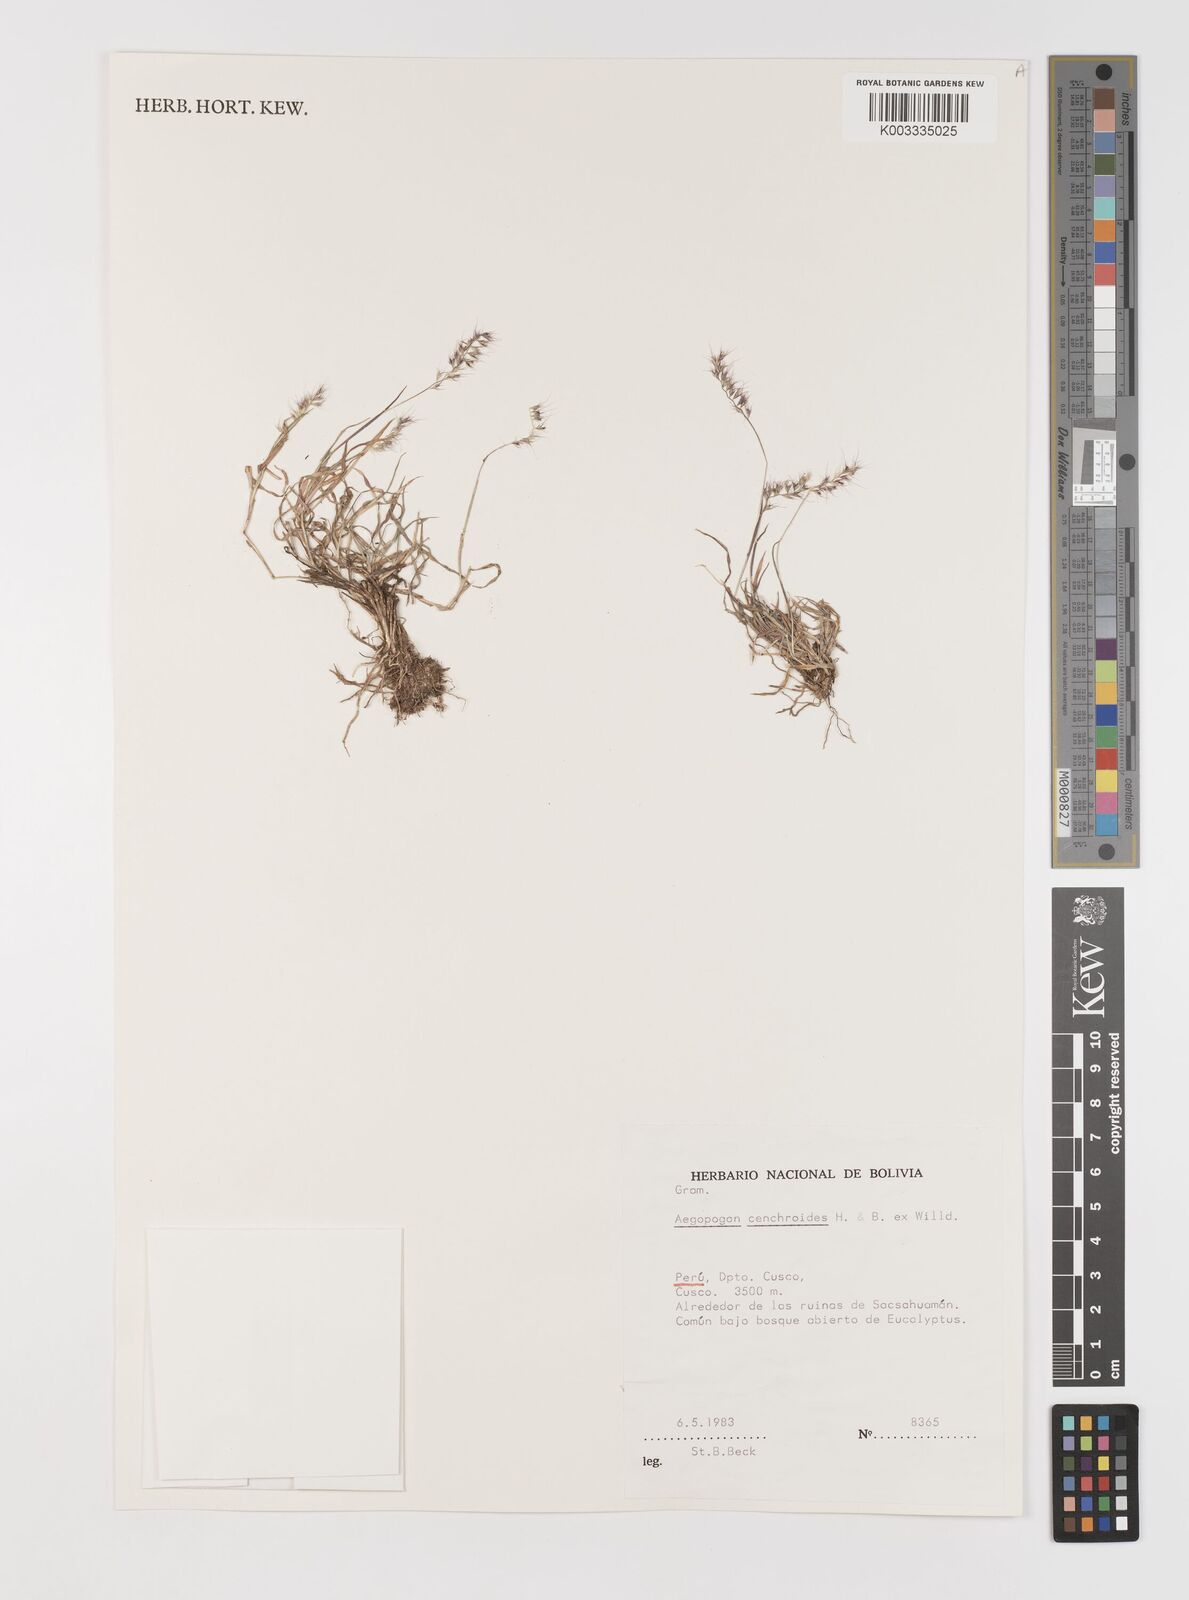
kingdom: Plantae
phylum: Tracheophyta
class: Liliopsida
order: Poales
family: Poaceae
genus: Muhlenbergia
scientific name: Muhlenbergia cenchroides
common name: Relaxgrass
